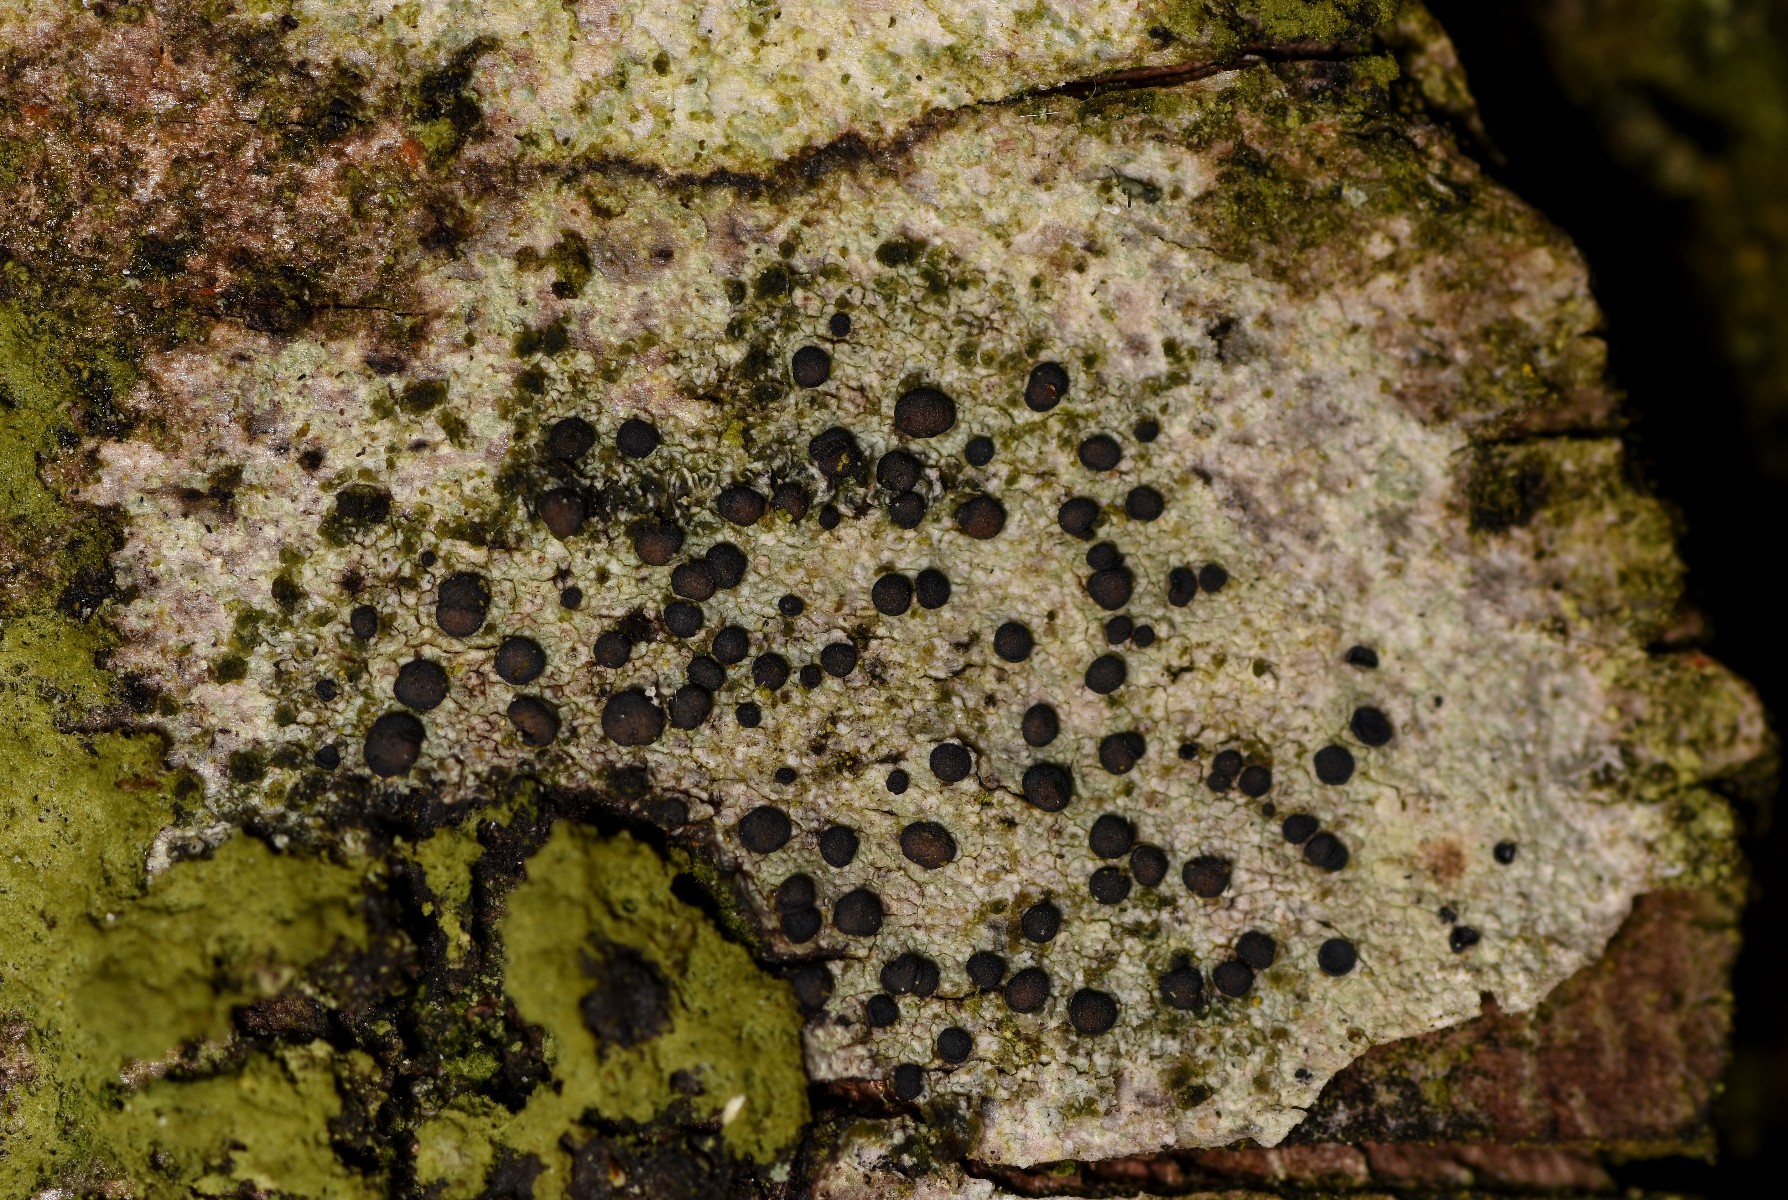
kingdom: Fungi
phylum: Ascomycota
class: Lecanoromycetes
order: Lecanorales
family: Lecanoraceae
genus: Lecidella
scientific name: Lecidella elaeochroma
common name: grågrøn skivelav
